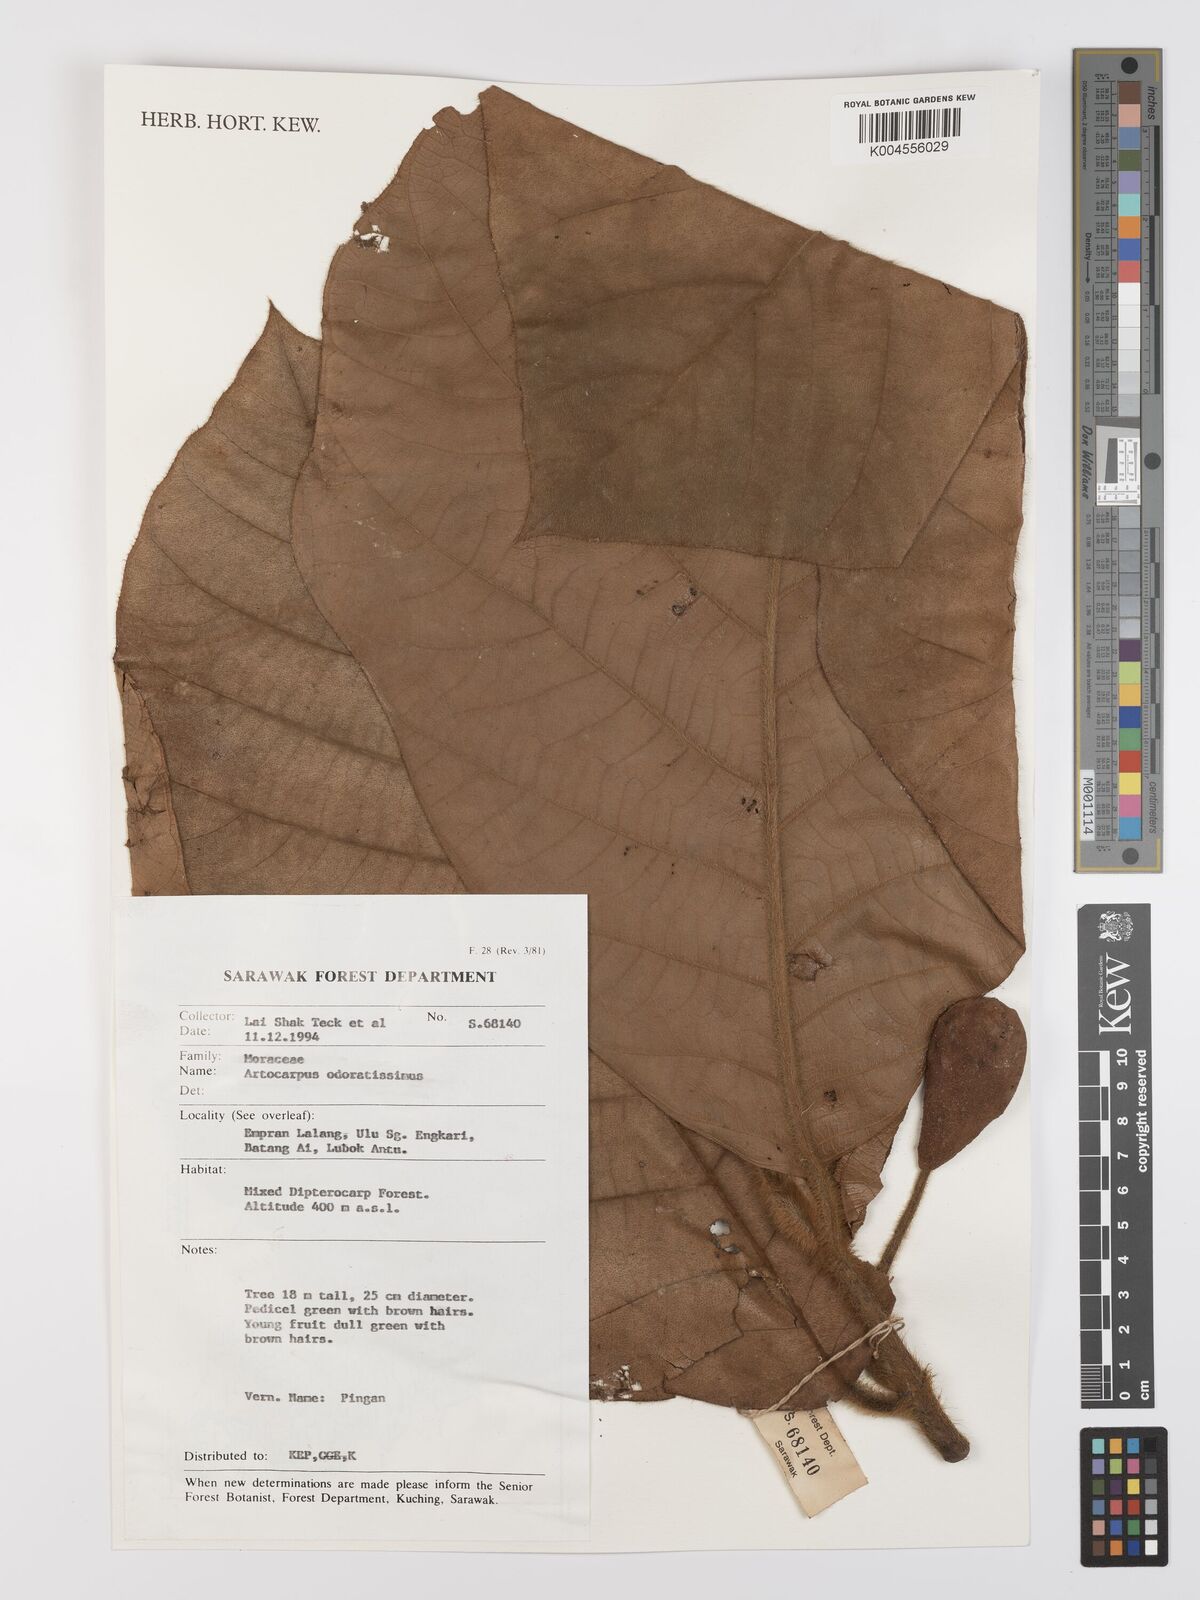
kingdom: Plantae
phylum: Tracheophyta
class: Magnoliopsida
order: Rosales
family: Moraceae
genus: Artocarpus
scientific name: Artocarpus odoratissimus
